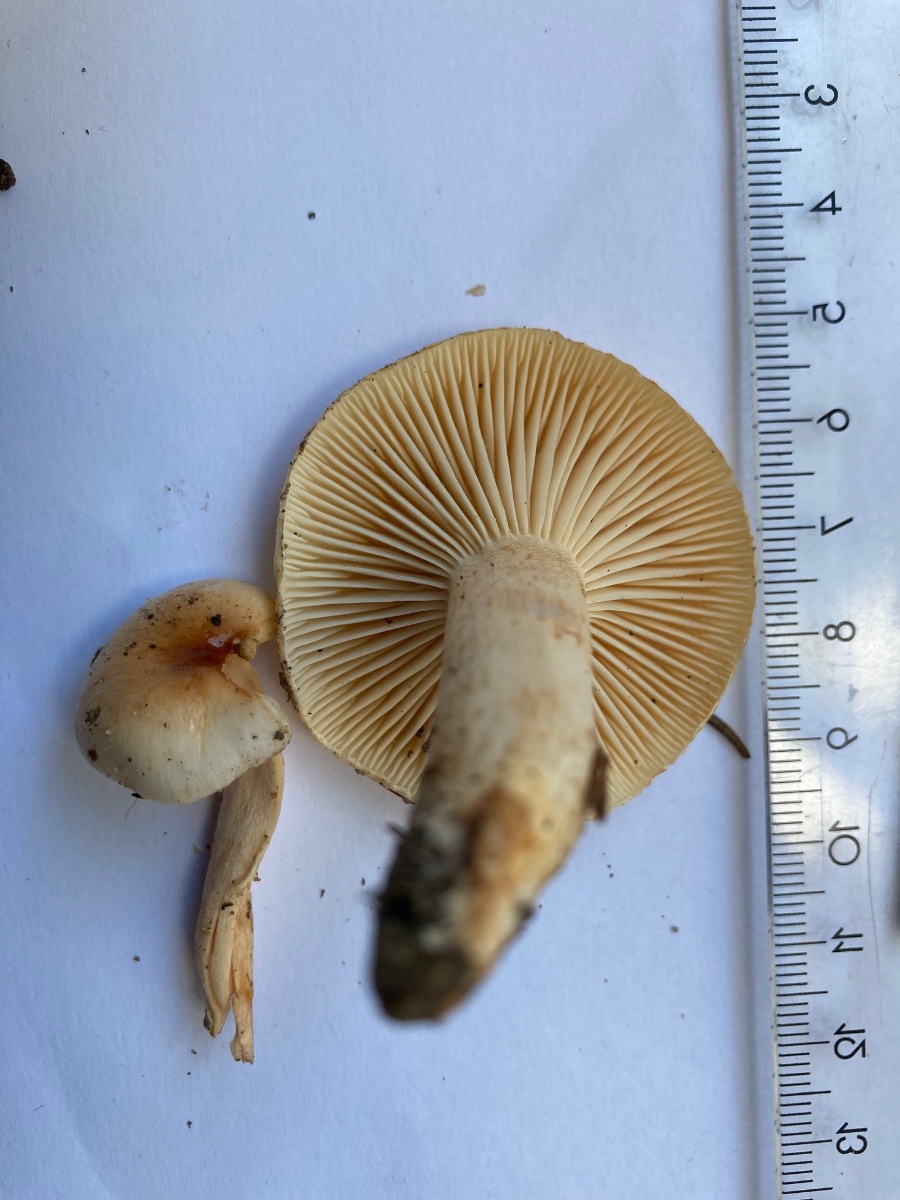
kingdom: Fungi
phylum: Basidiomycota
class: Agaricomycetes
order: Agaricales
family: Hygrophoraceae
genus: Hygrophorus
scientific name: Hygrophorus unicolor
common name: orangeøjet sneglehat
